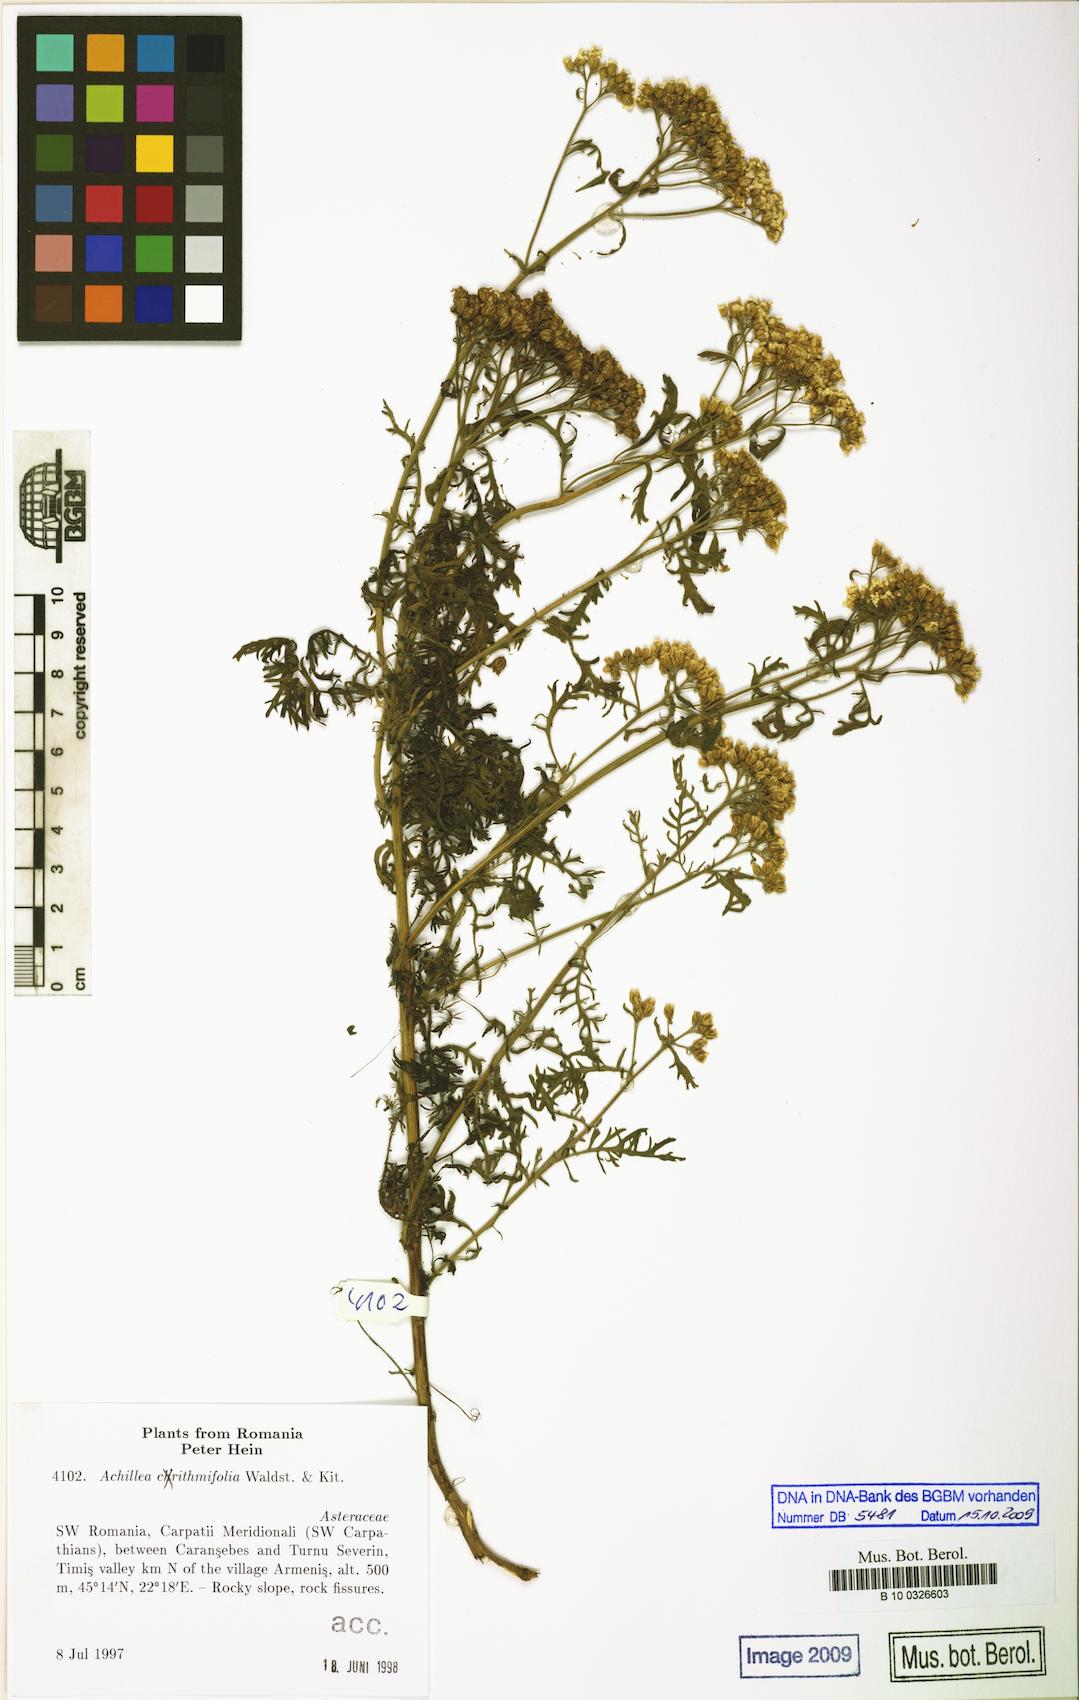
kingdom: Plantae
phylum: Tracheophyta
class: Magnoliopsida
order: Asterales
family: Asteraceae
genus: Achillea
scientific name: Achillea crithmifolia
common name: Yarrow
